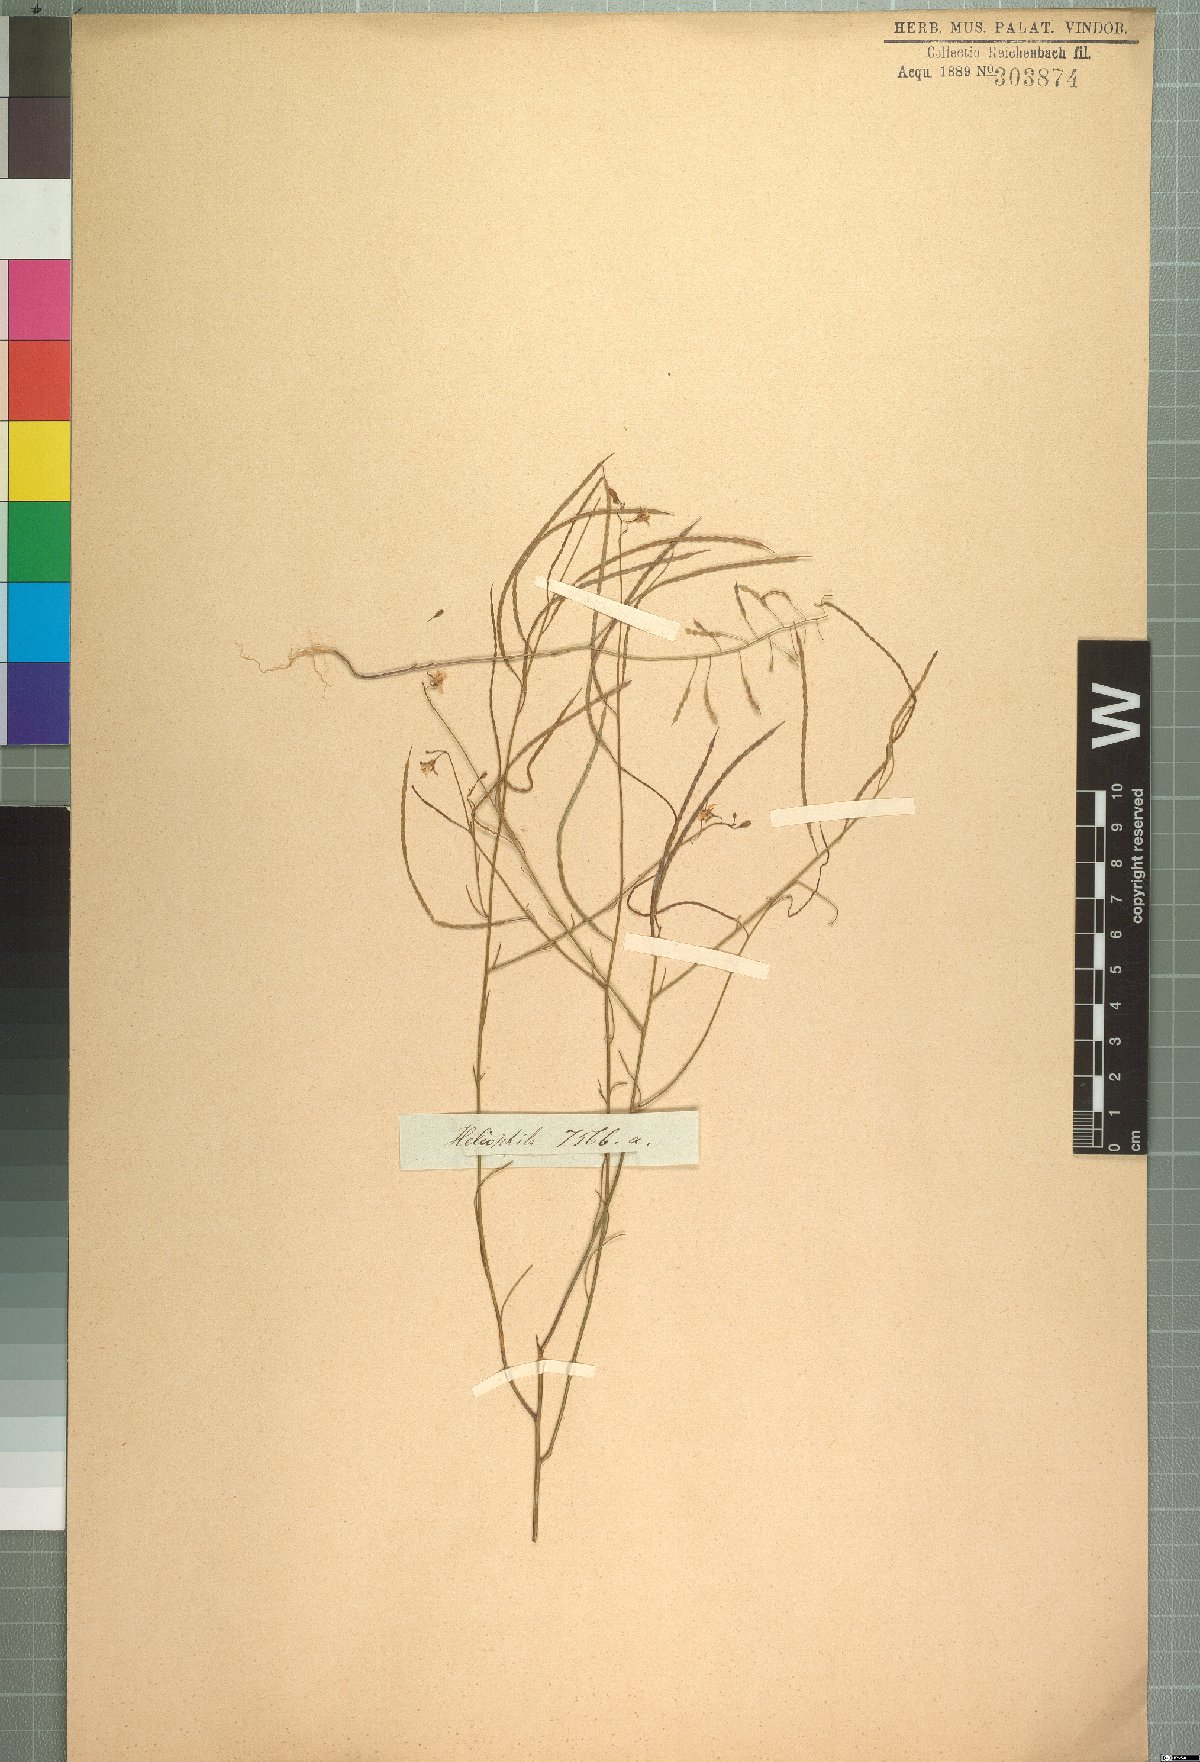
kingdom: Plantae
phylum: Tracheophyta
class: Magnoliopsida
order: Brassicales
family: Brassicaceae
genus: Heliophila
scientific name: Heliophila elata
